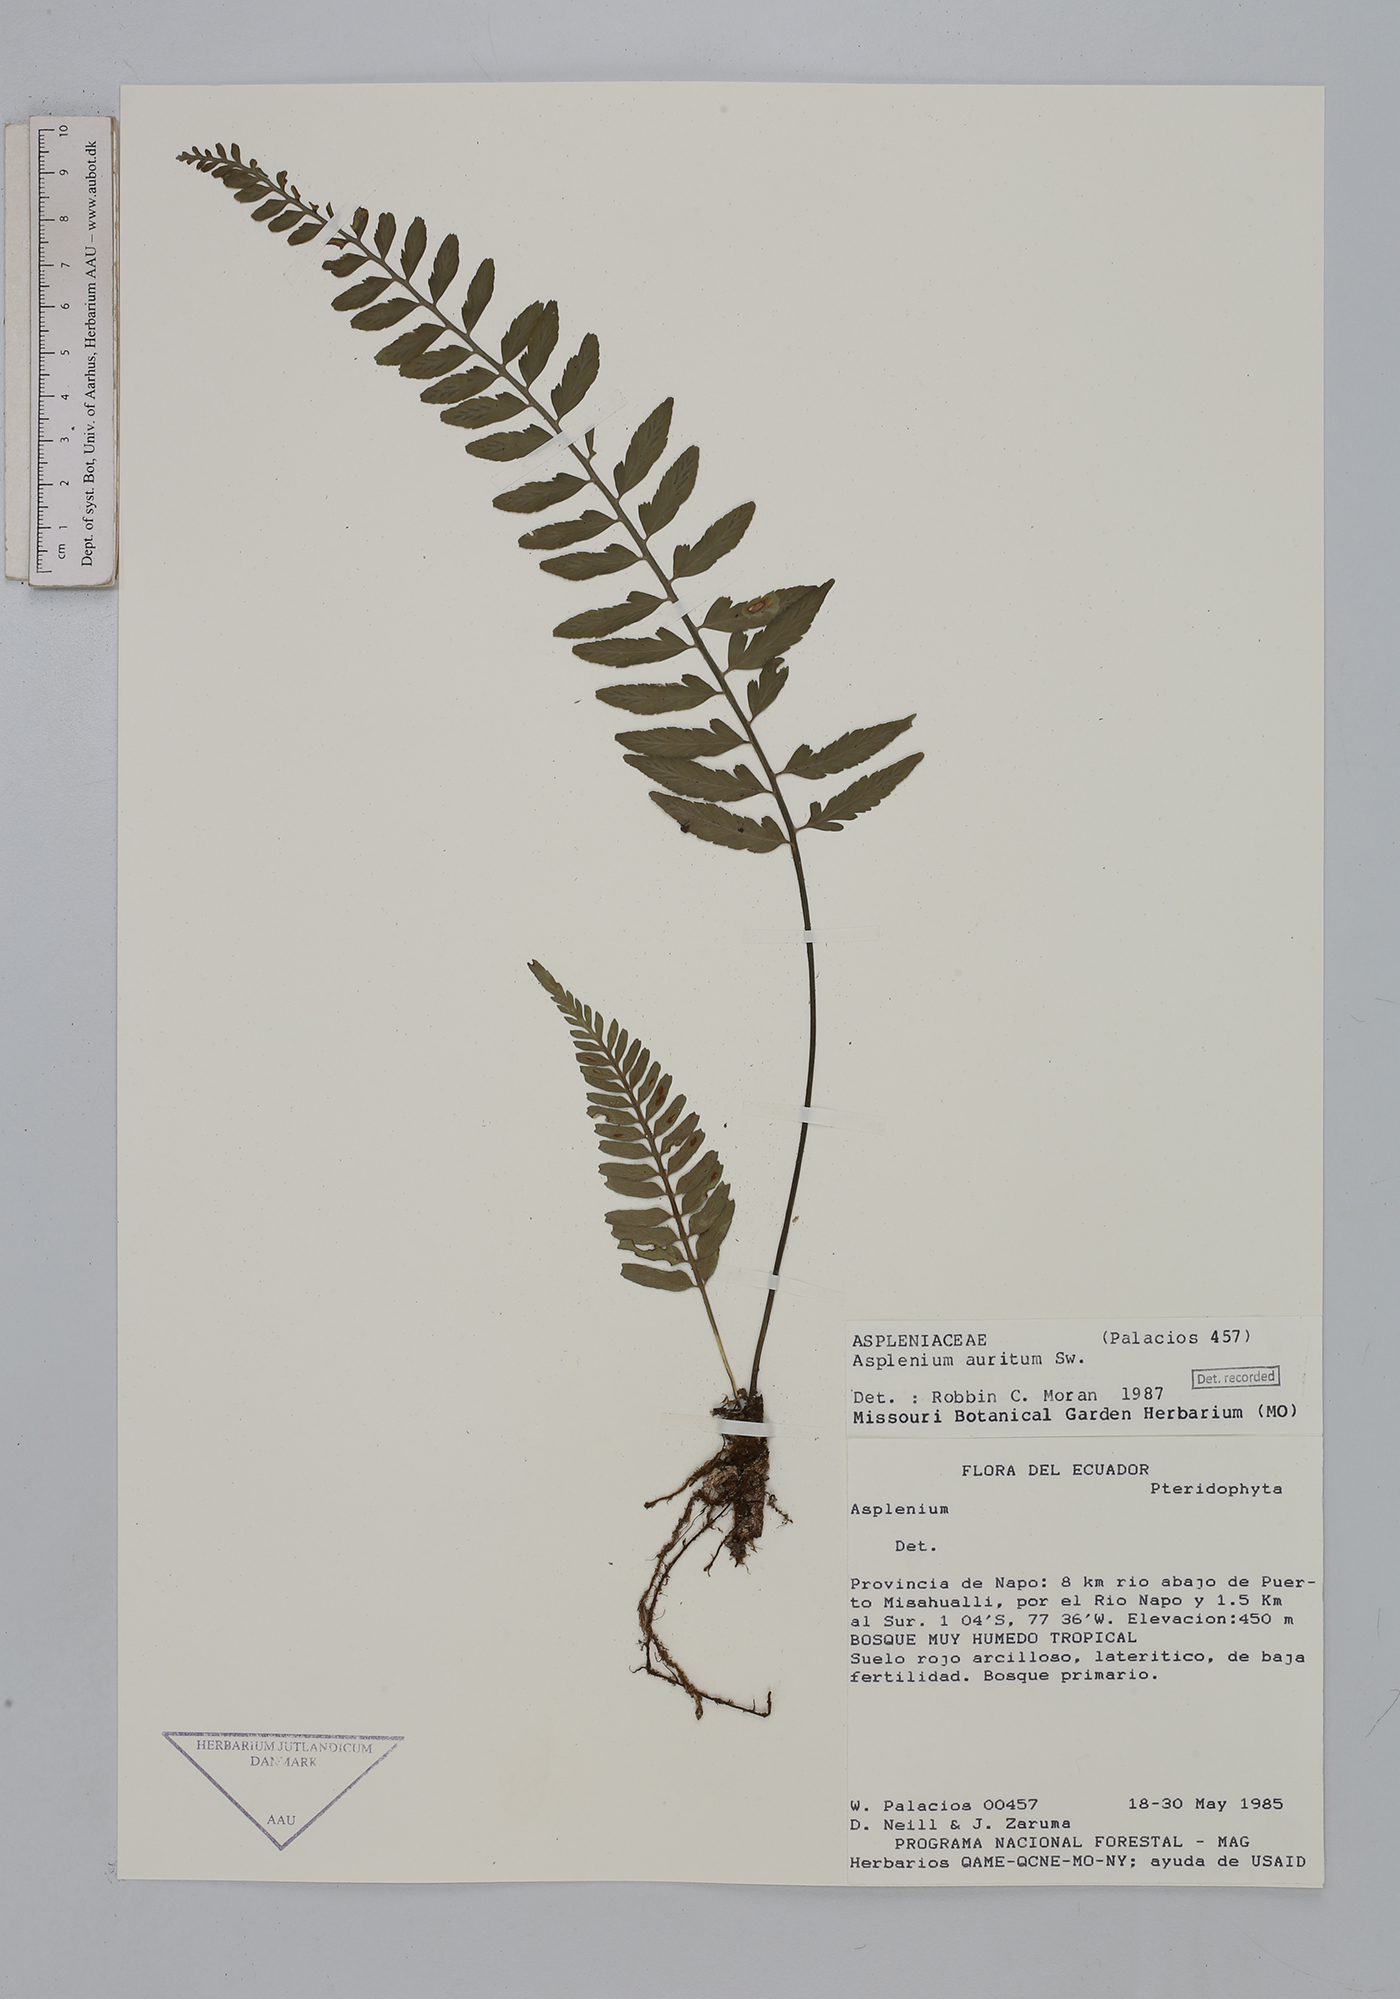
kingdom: Plantae
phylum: Tracheophyta
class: Polypodiopsida
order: Polypodiales
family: Aspleniaceae
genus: Asplenium
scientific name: Asplenium auritum
